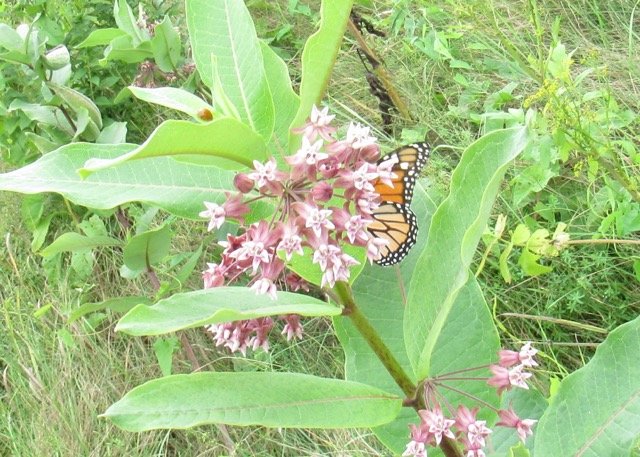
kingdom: Animalia
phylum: Arthropoda
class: Insecta
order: Lepidoptera
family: Nymphalidae
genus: Danaus
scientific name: Danaus plexippus
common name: Monarch
